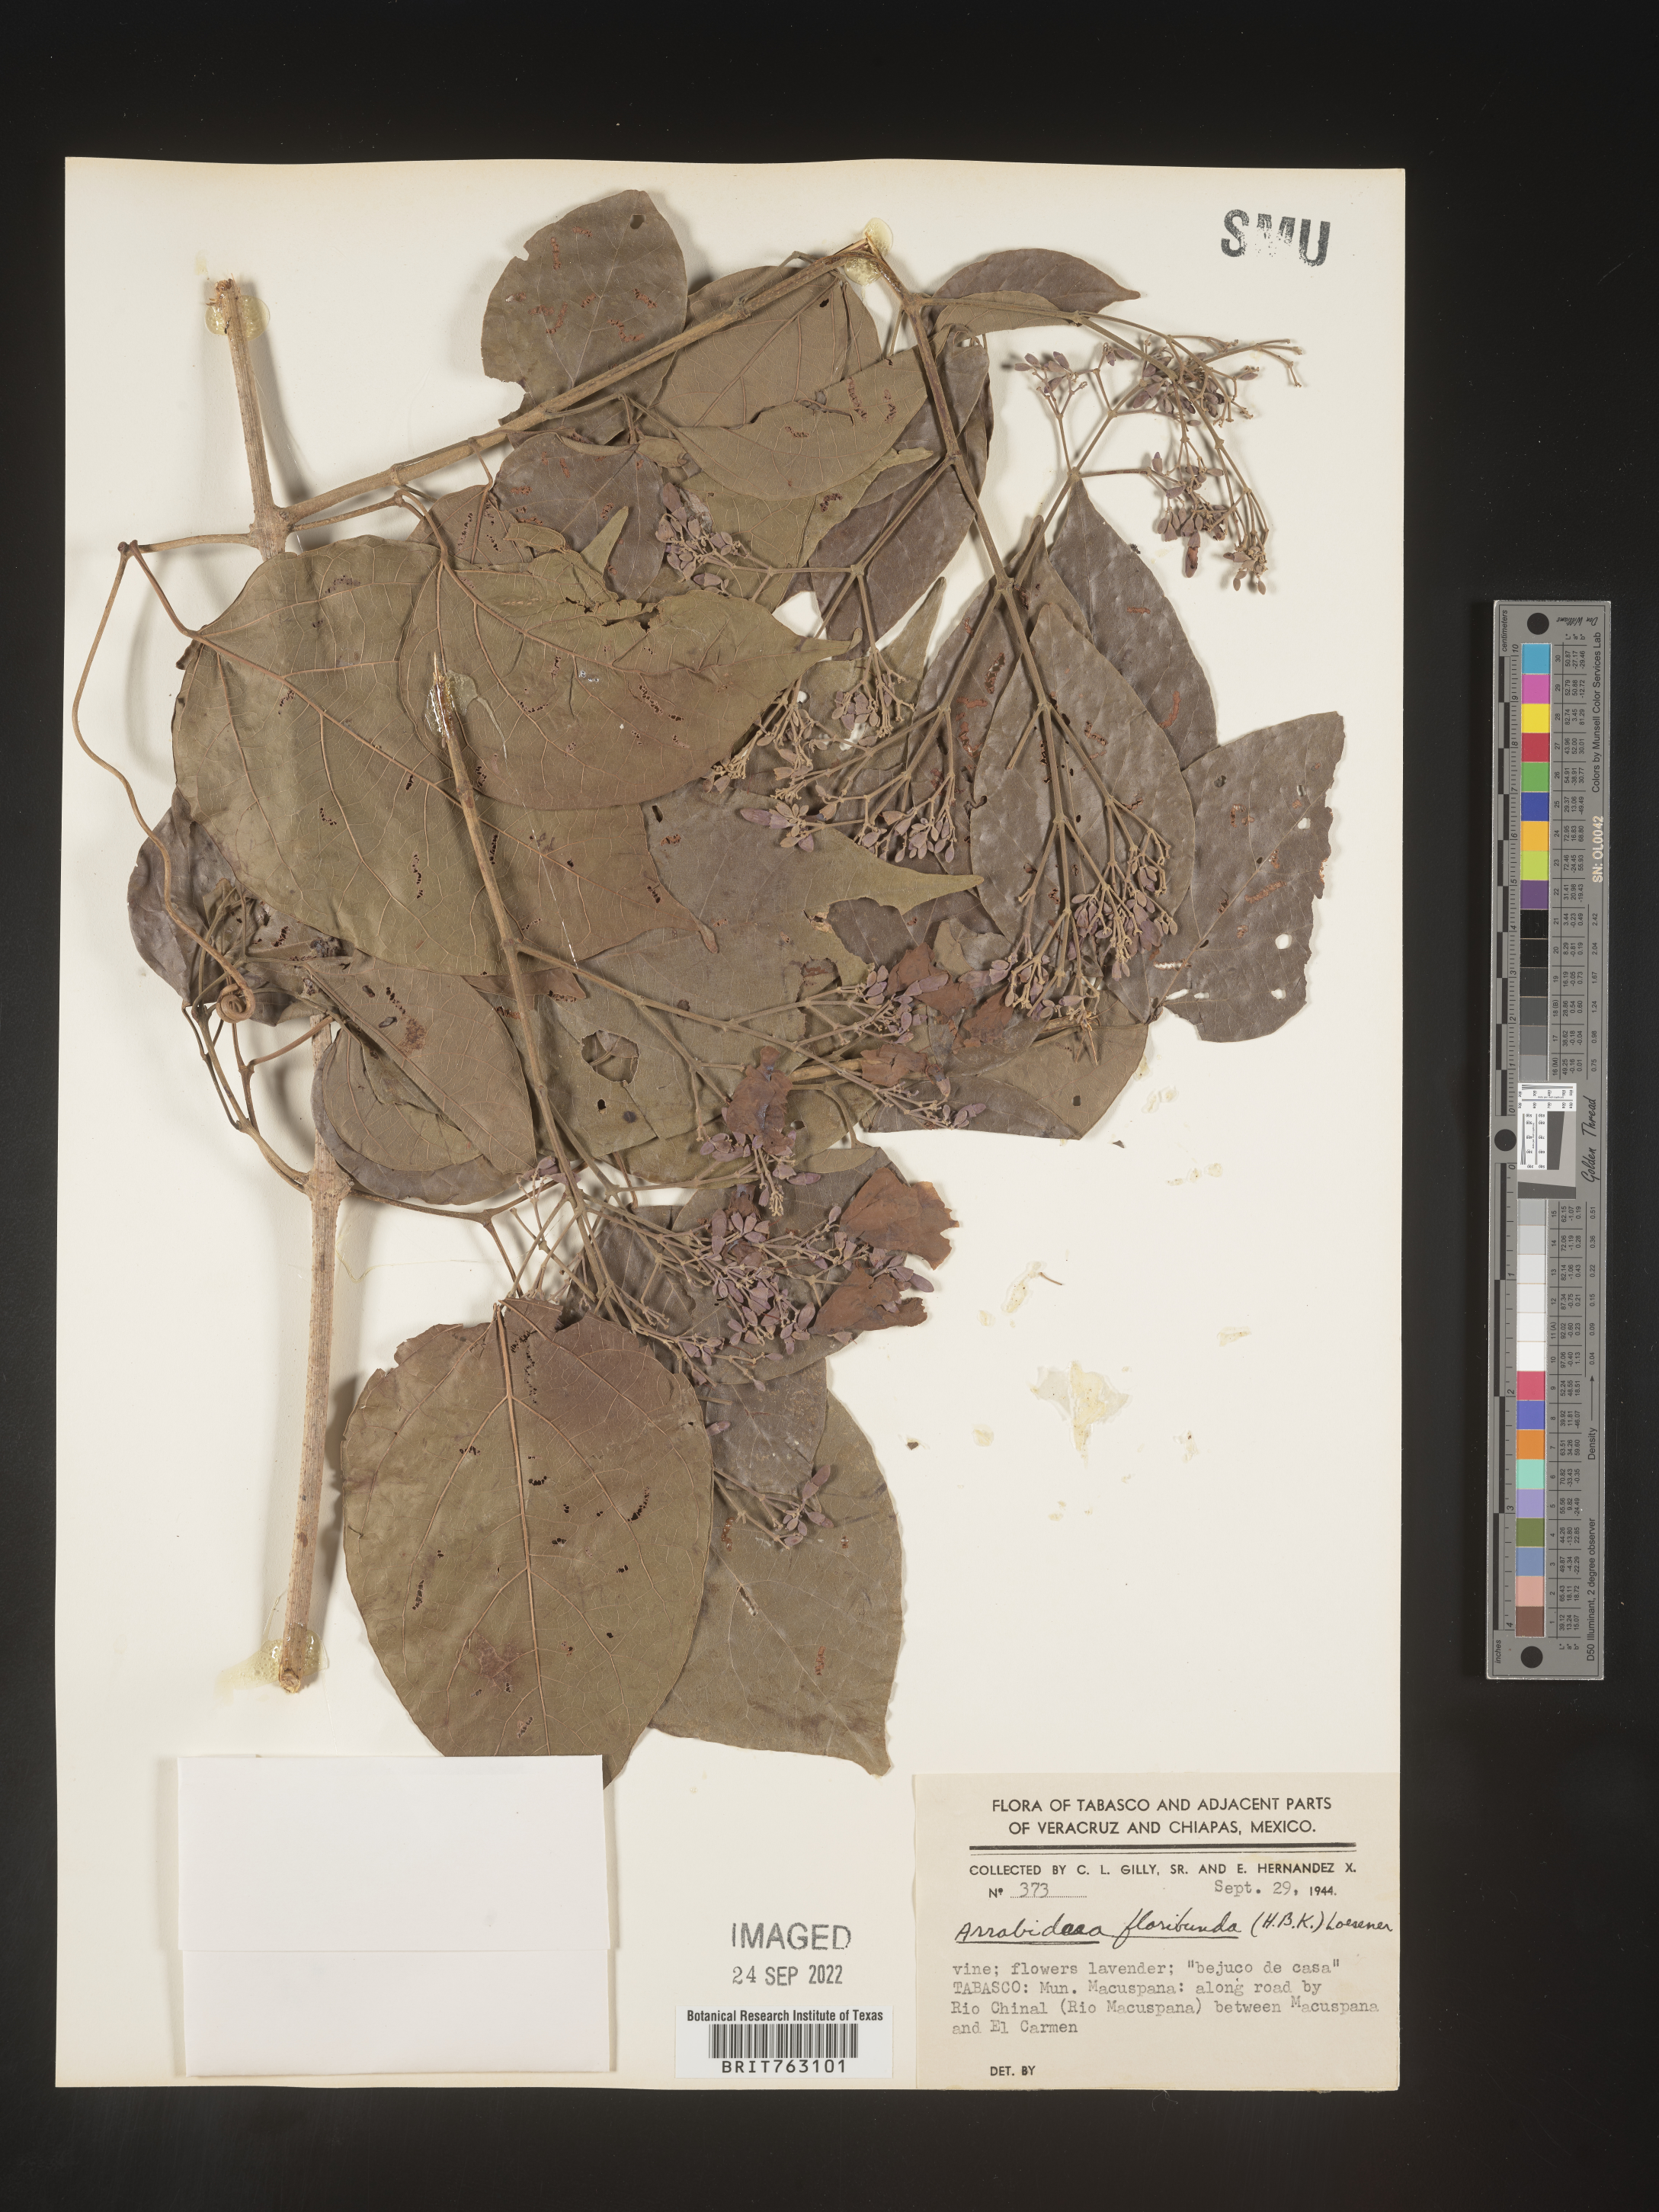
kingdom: Plantae
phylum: Tracheophyta
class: Magnoliopsida
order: Rosales
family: Rhamnaceae
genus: Arrabidaea
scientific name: Arrabidaea
